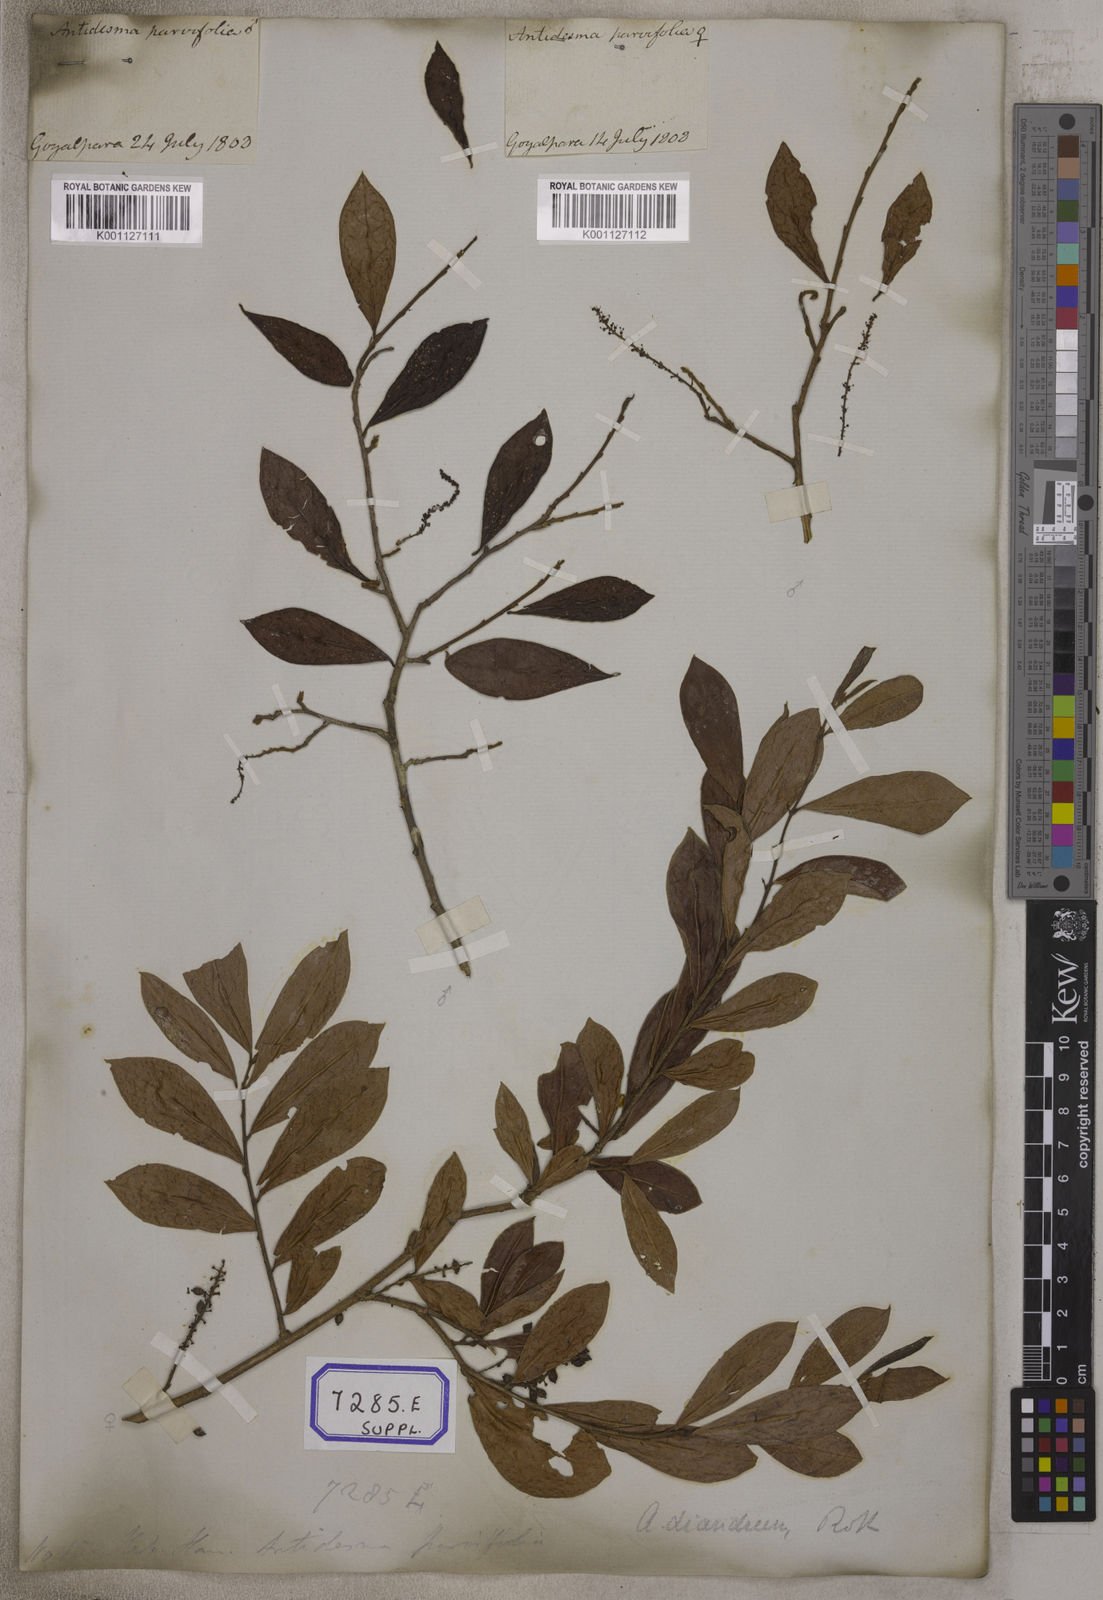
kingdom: Plantae
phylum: Tracheophyta
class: Magnoliopsida
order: Malpighiales
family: Phyllanthaceae
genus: Antidesma
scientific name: Antidesma
